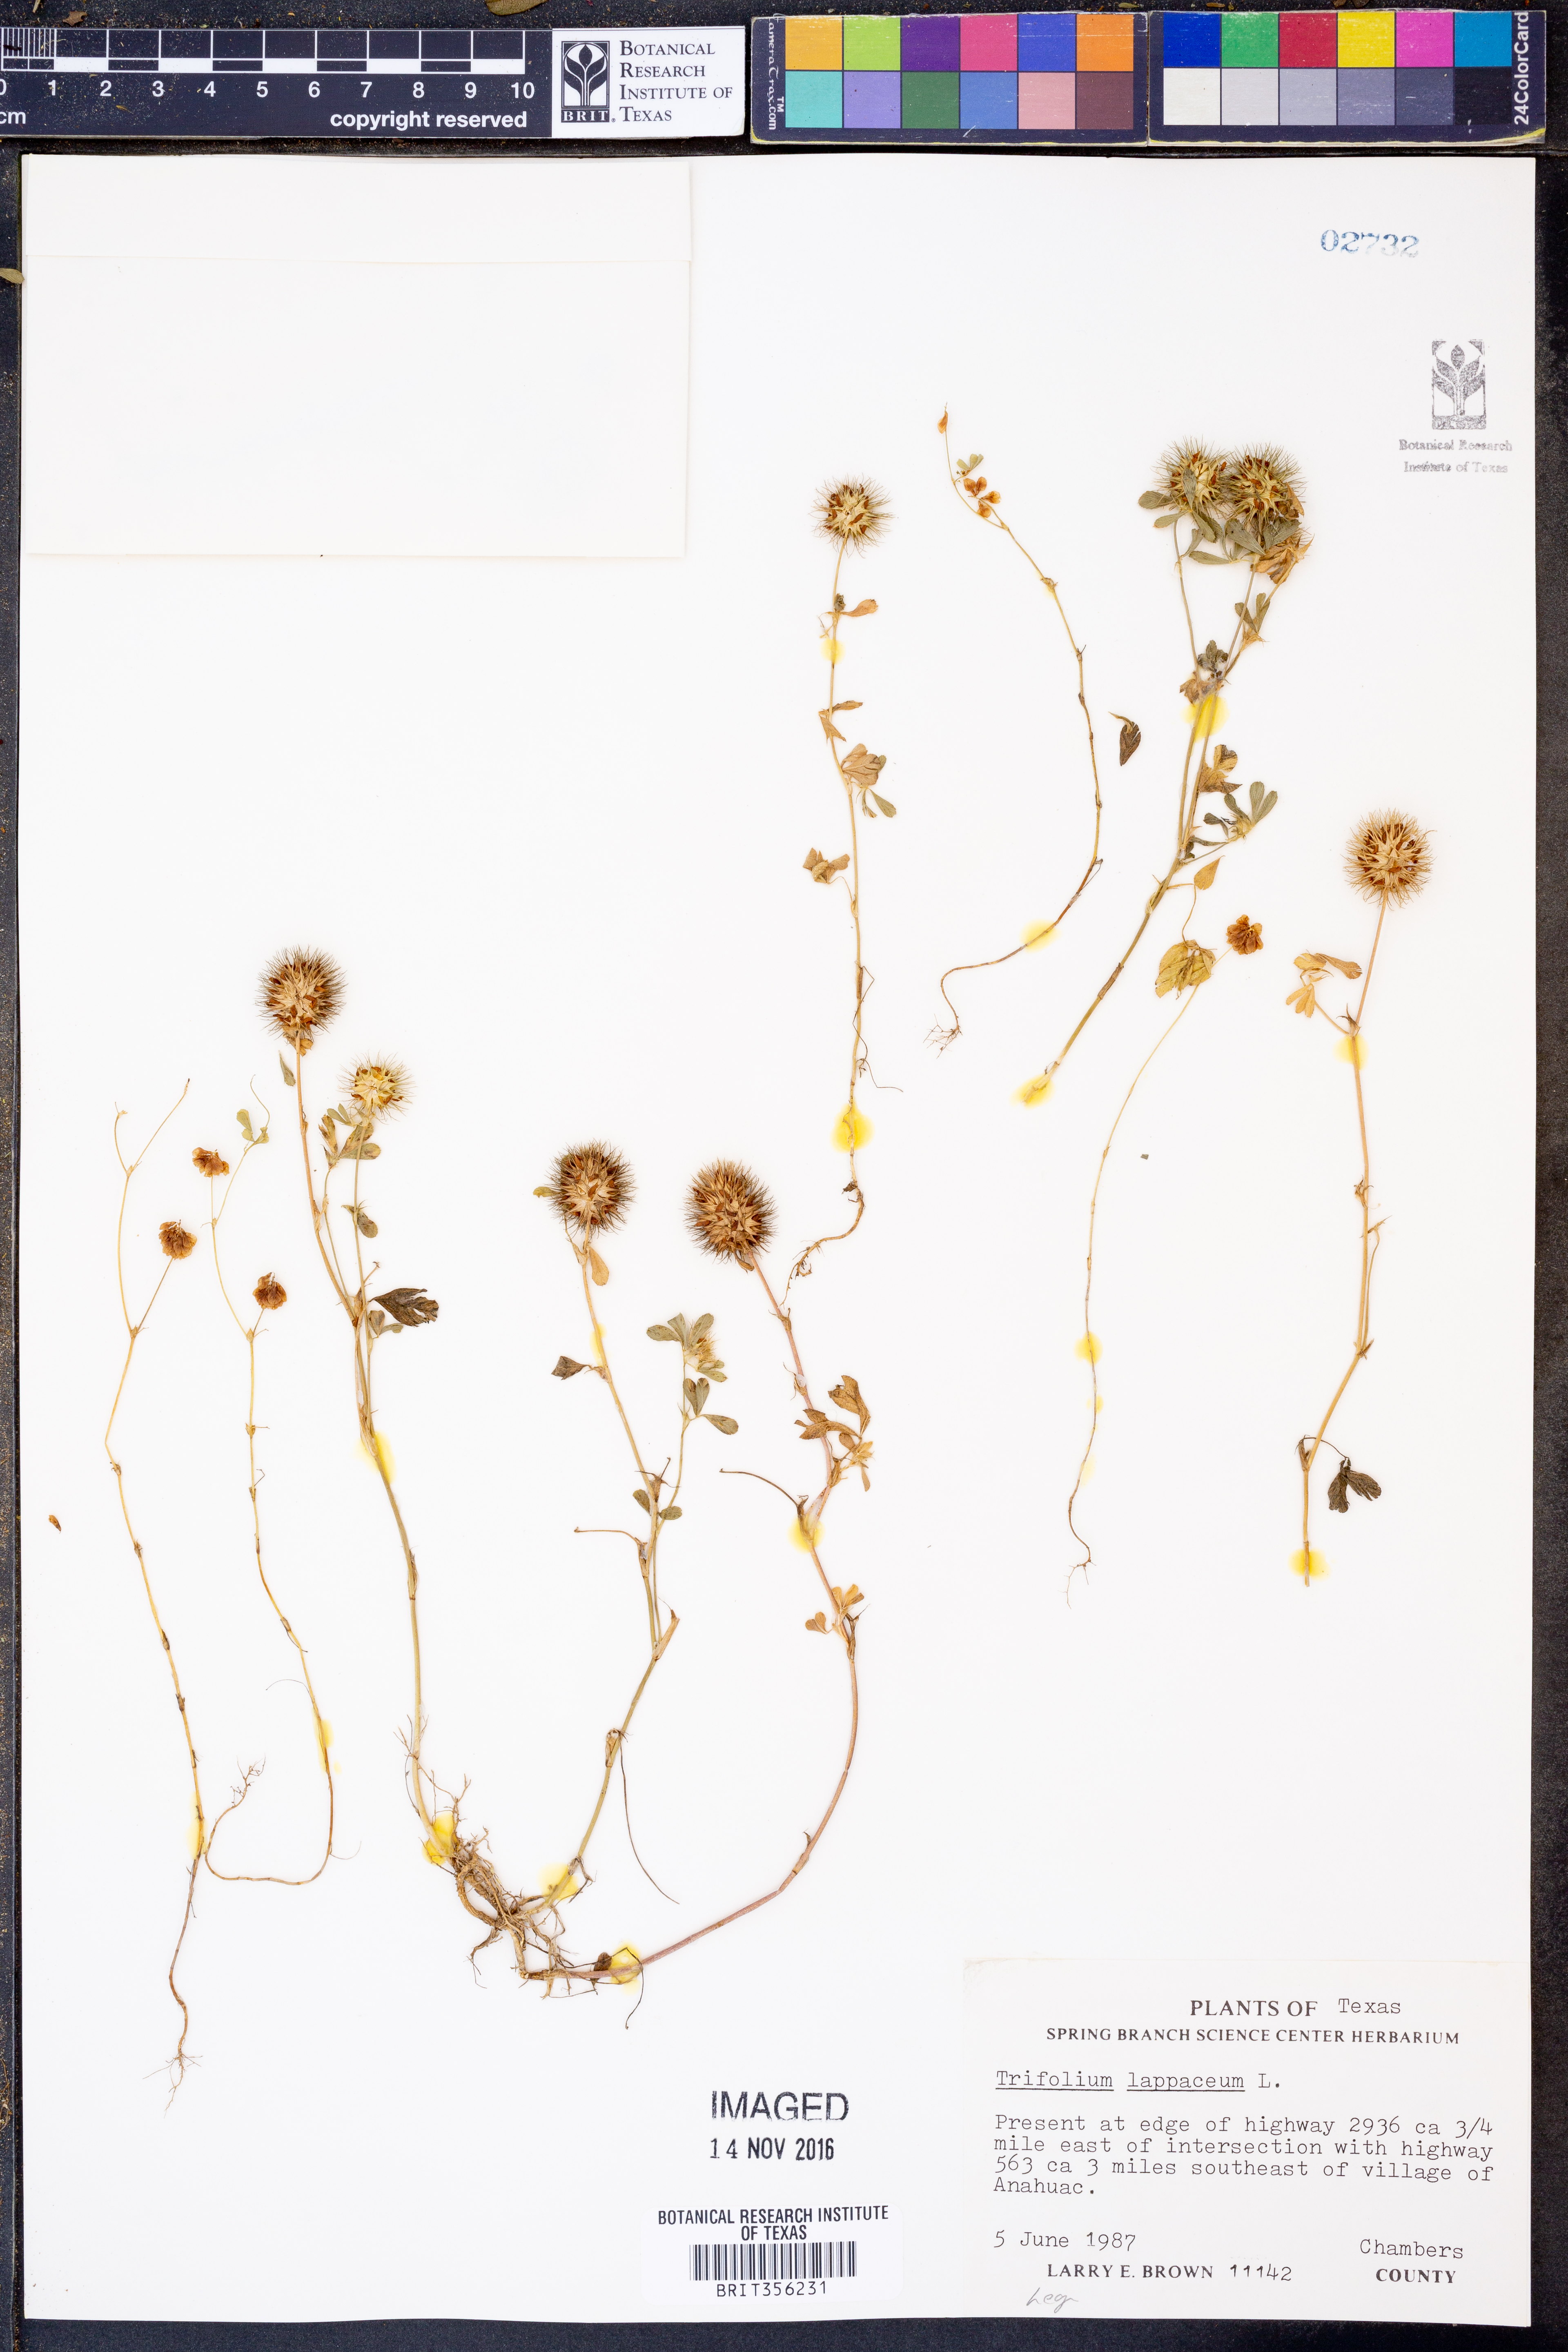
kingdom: Plantae
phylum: Tracheophyta
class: Magnoliopsida
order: Fabales
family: Fabaceae
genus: Trifolium
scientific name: Trifolium lappaceum
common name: Bur clover
